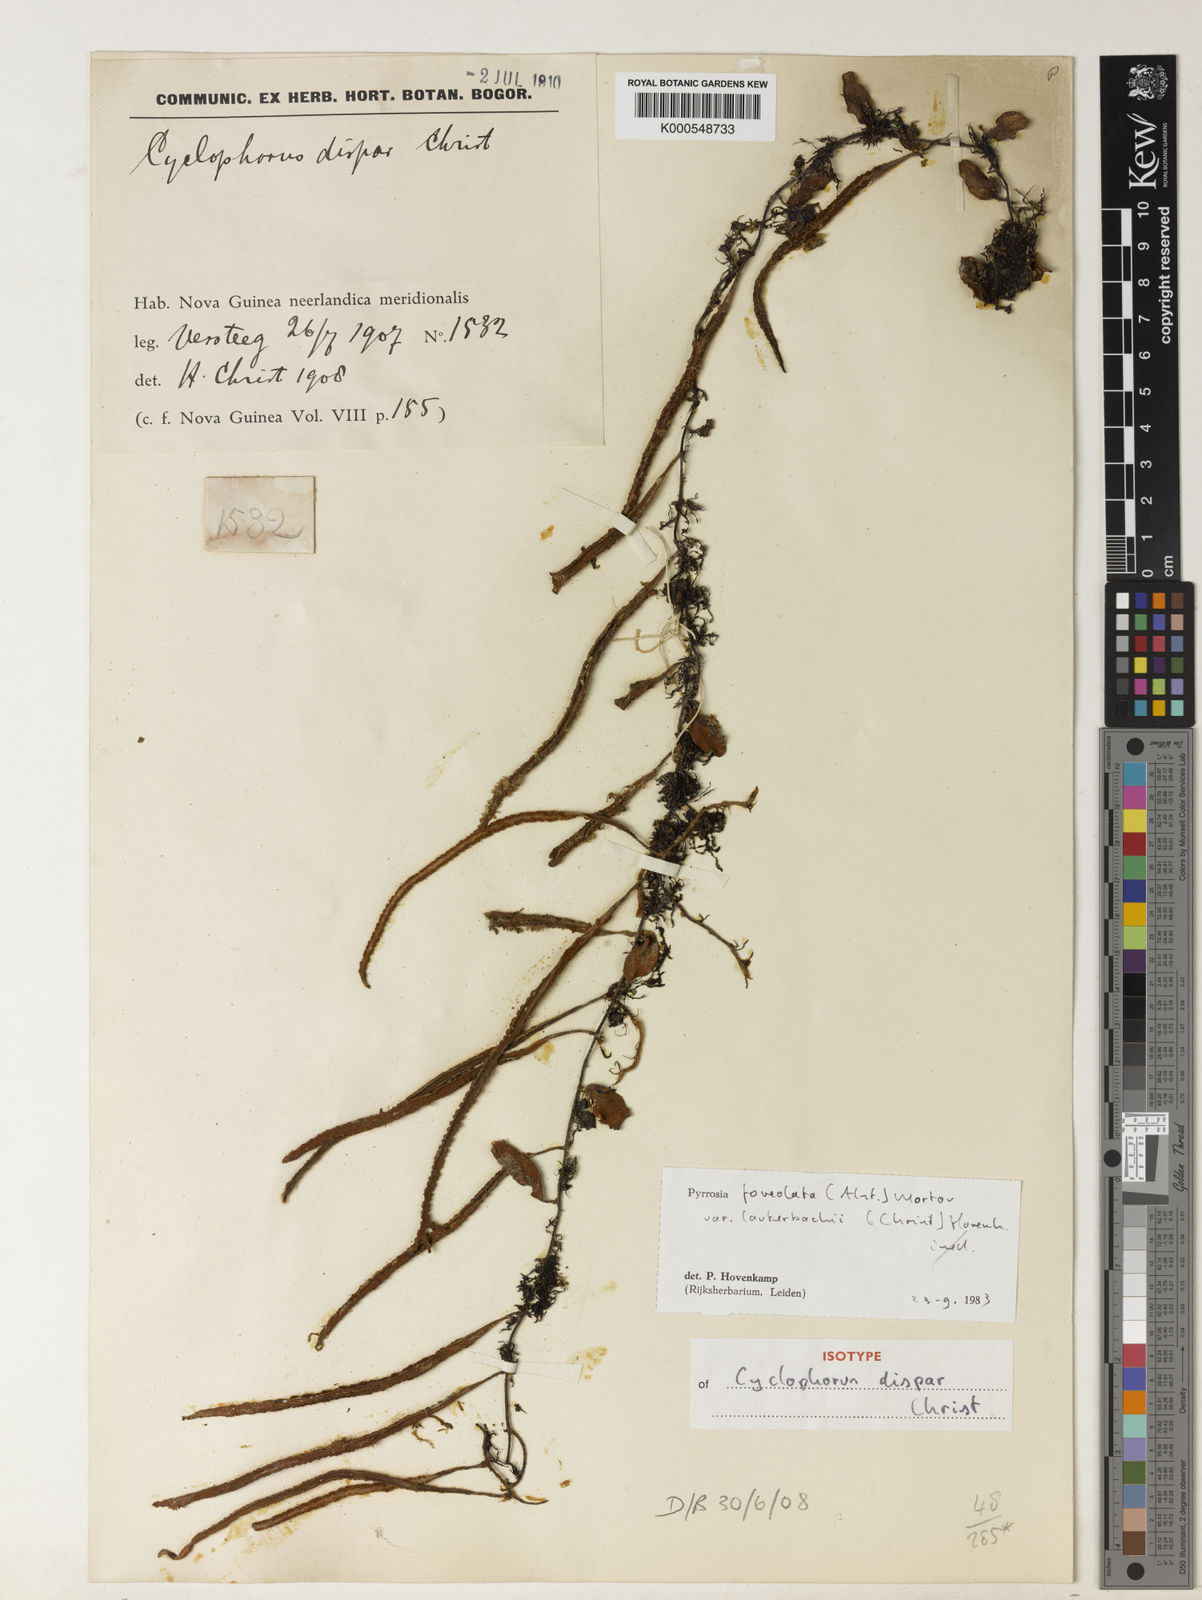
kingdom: Plantae
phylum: Tracheophyta
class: Polypodiopsida
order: Polypodiales
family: Polypodiaceae
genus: Pyrrosia
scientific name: Pyrrosia foveolata
